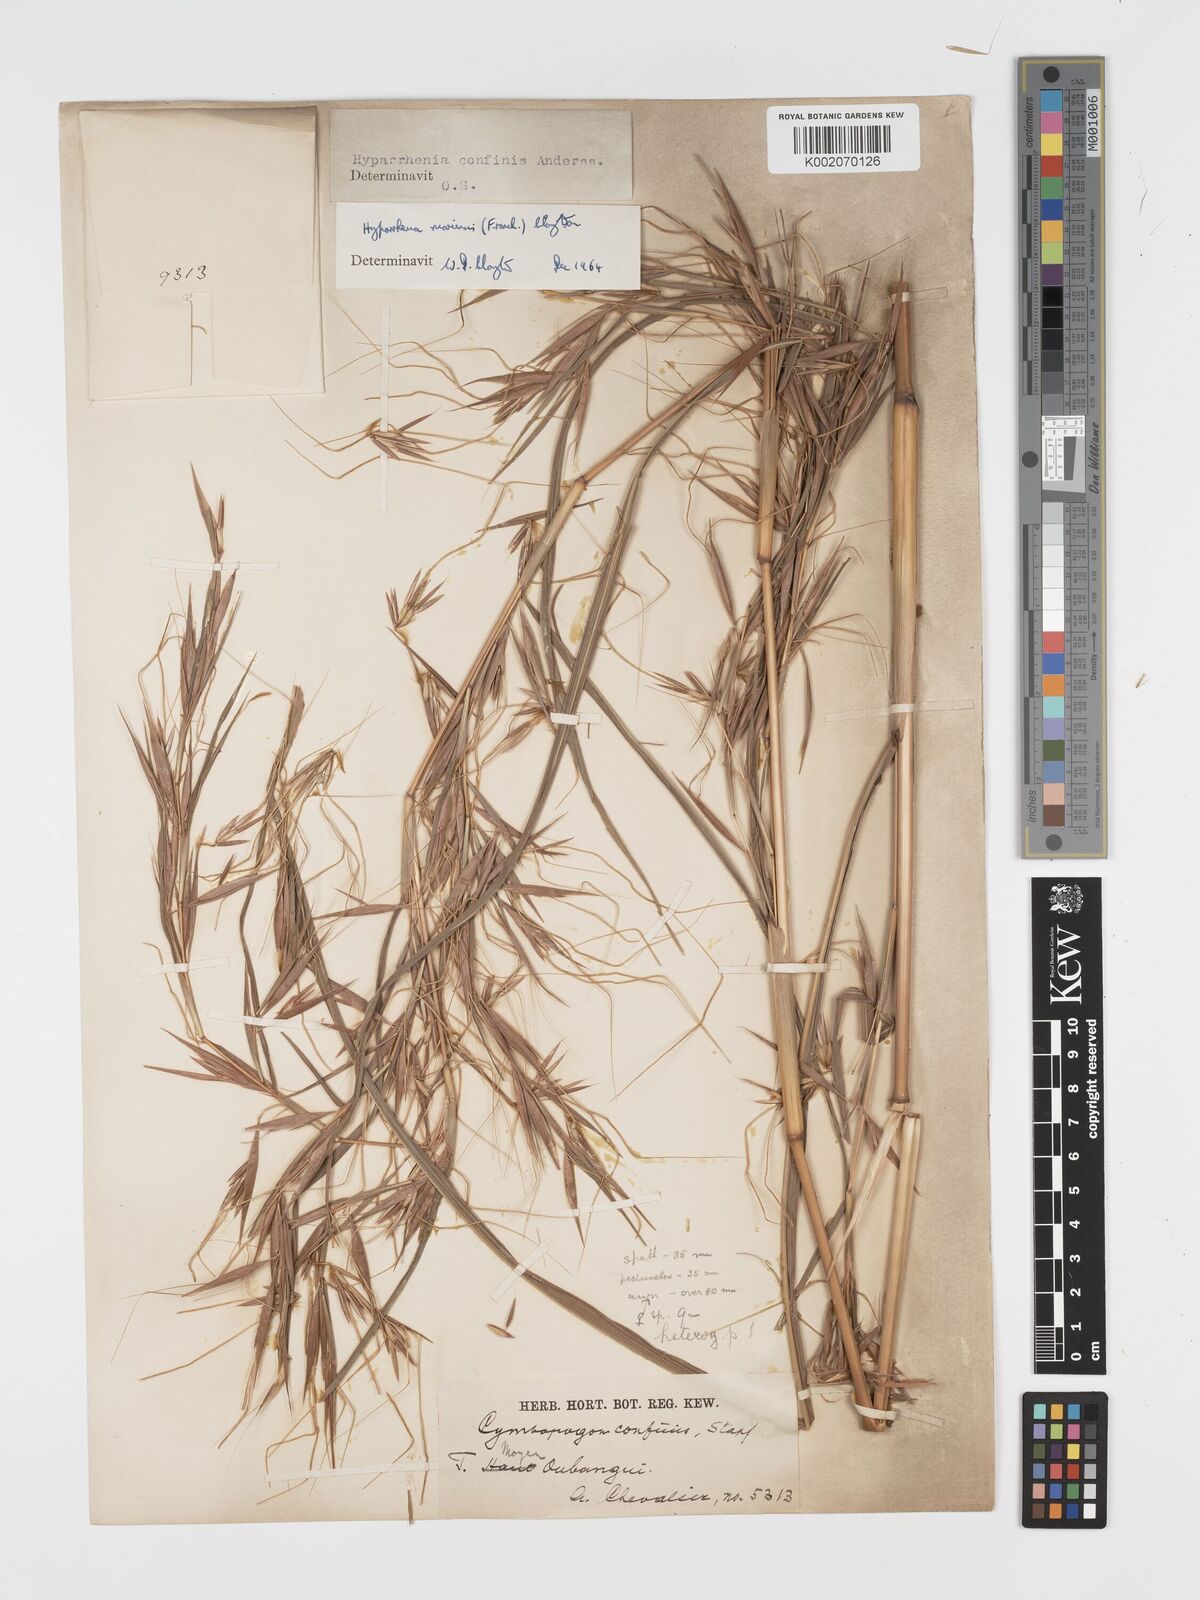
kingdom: Plantae
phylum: Tracheophyta
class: Liliopsida
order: Poales
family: Poaceae
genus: Hyparrhenia
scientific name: Hyparrhenia niariensis
